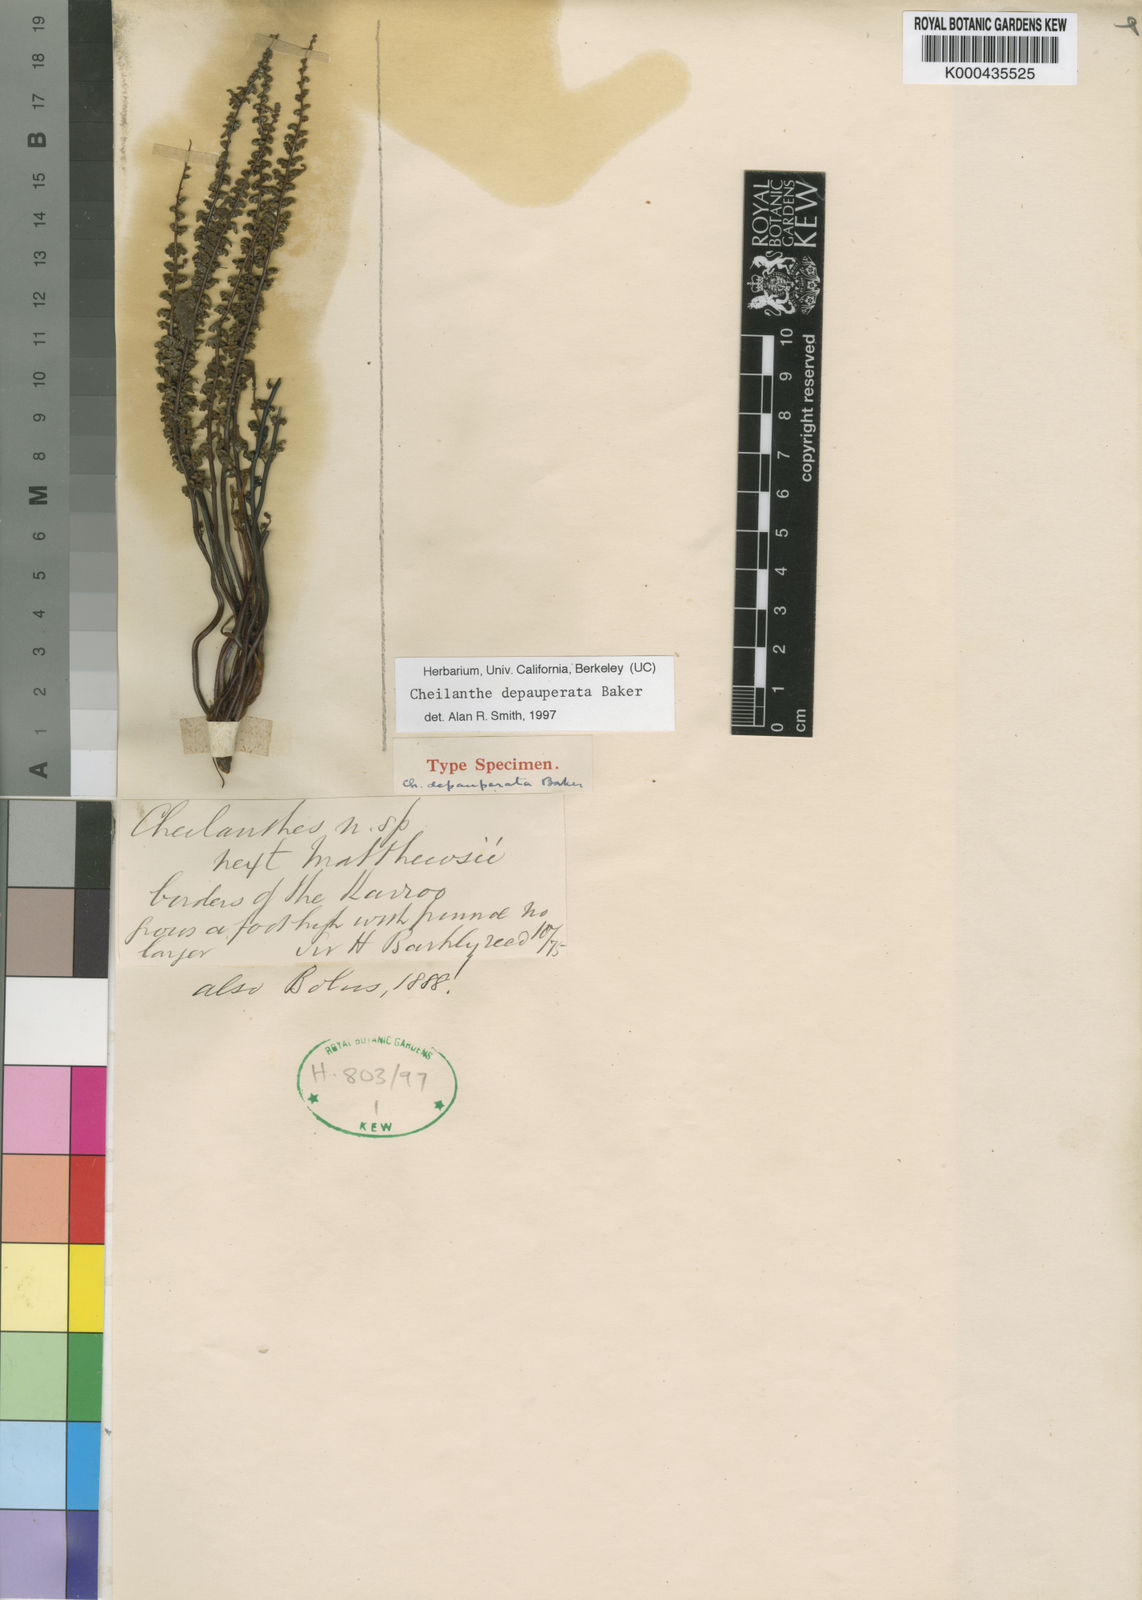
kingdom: Plantae
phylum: Tracheophyta
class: Polypodiopsida
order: Polypodiales
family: Pteridaceae
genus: Cheilanthes
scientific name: Cheilanthes depauperata
